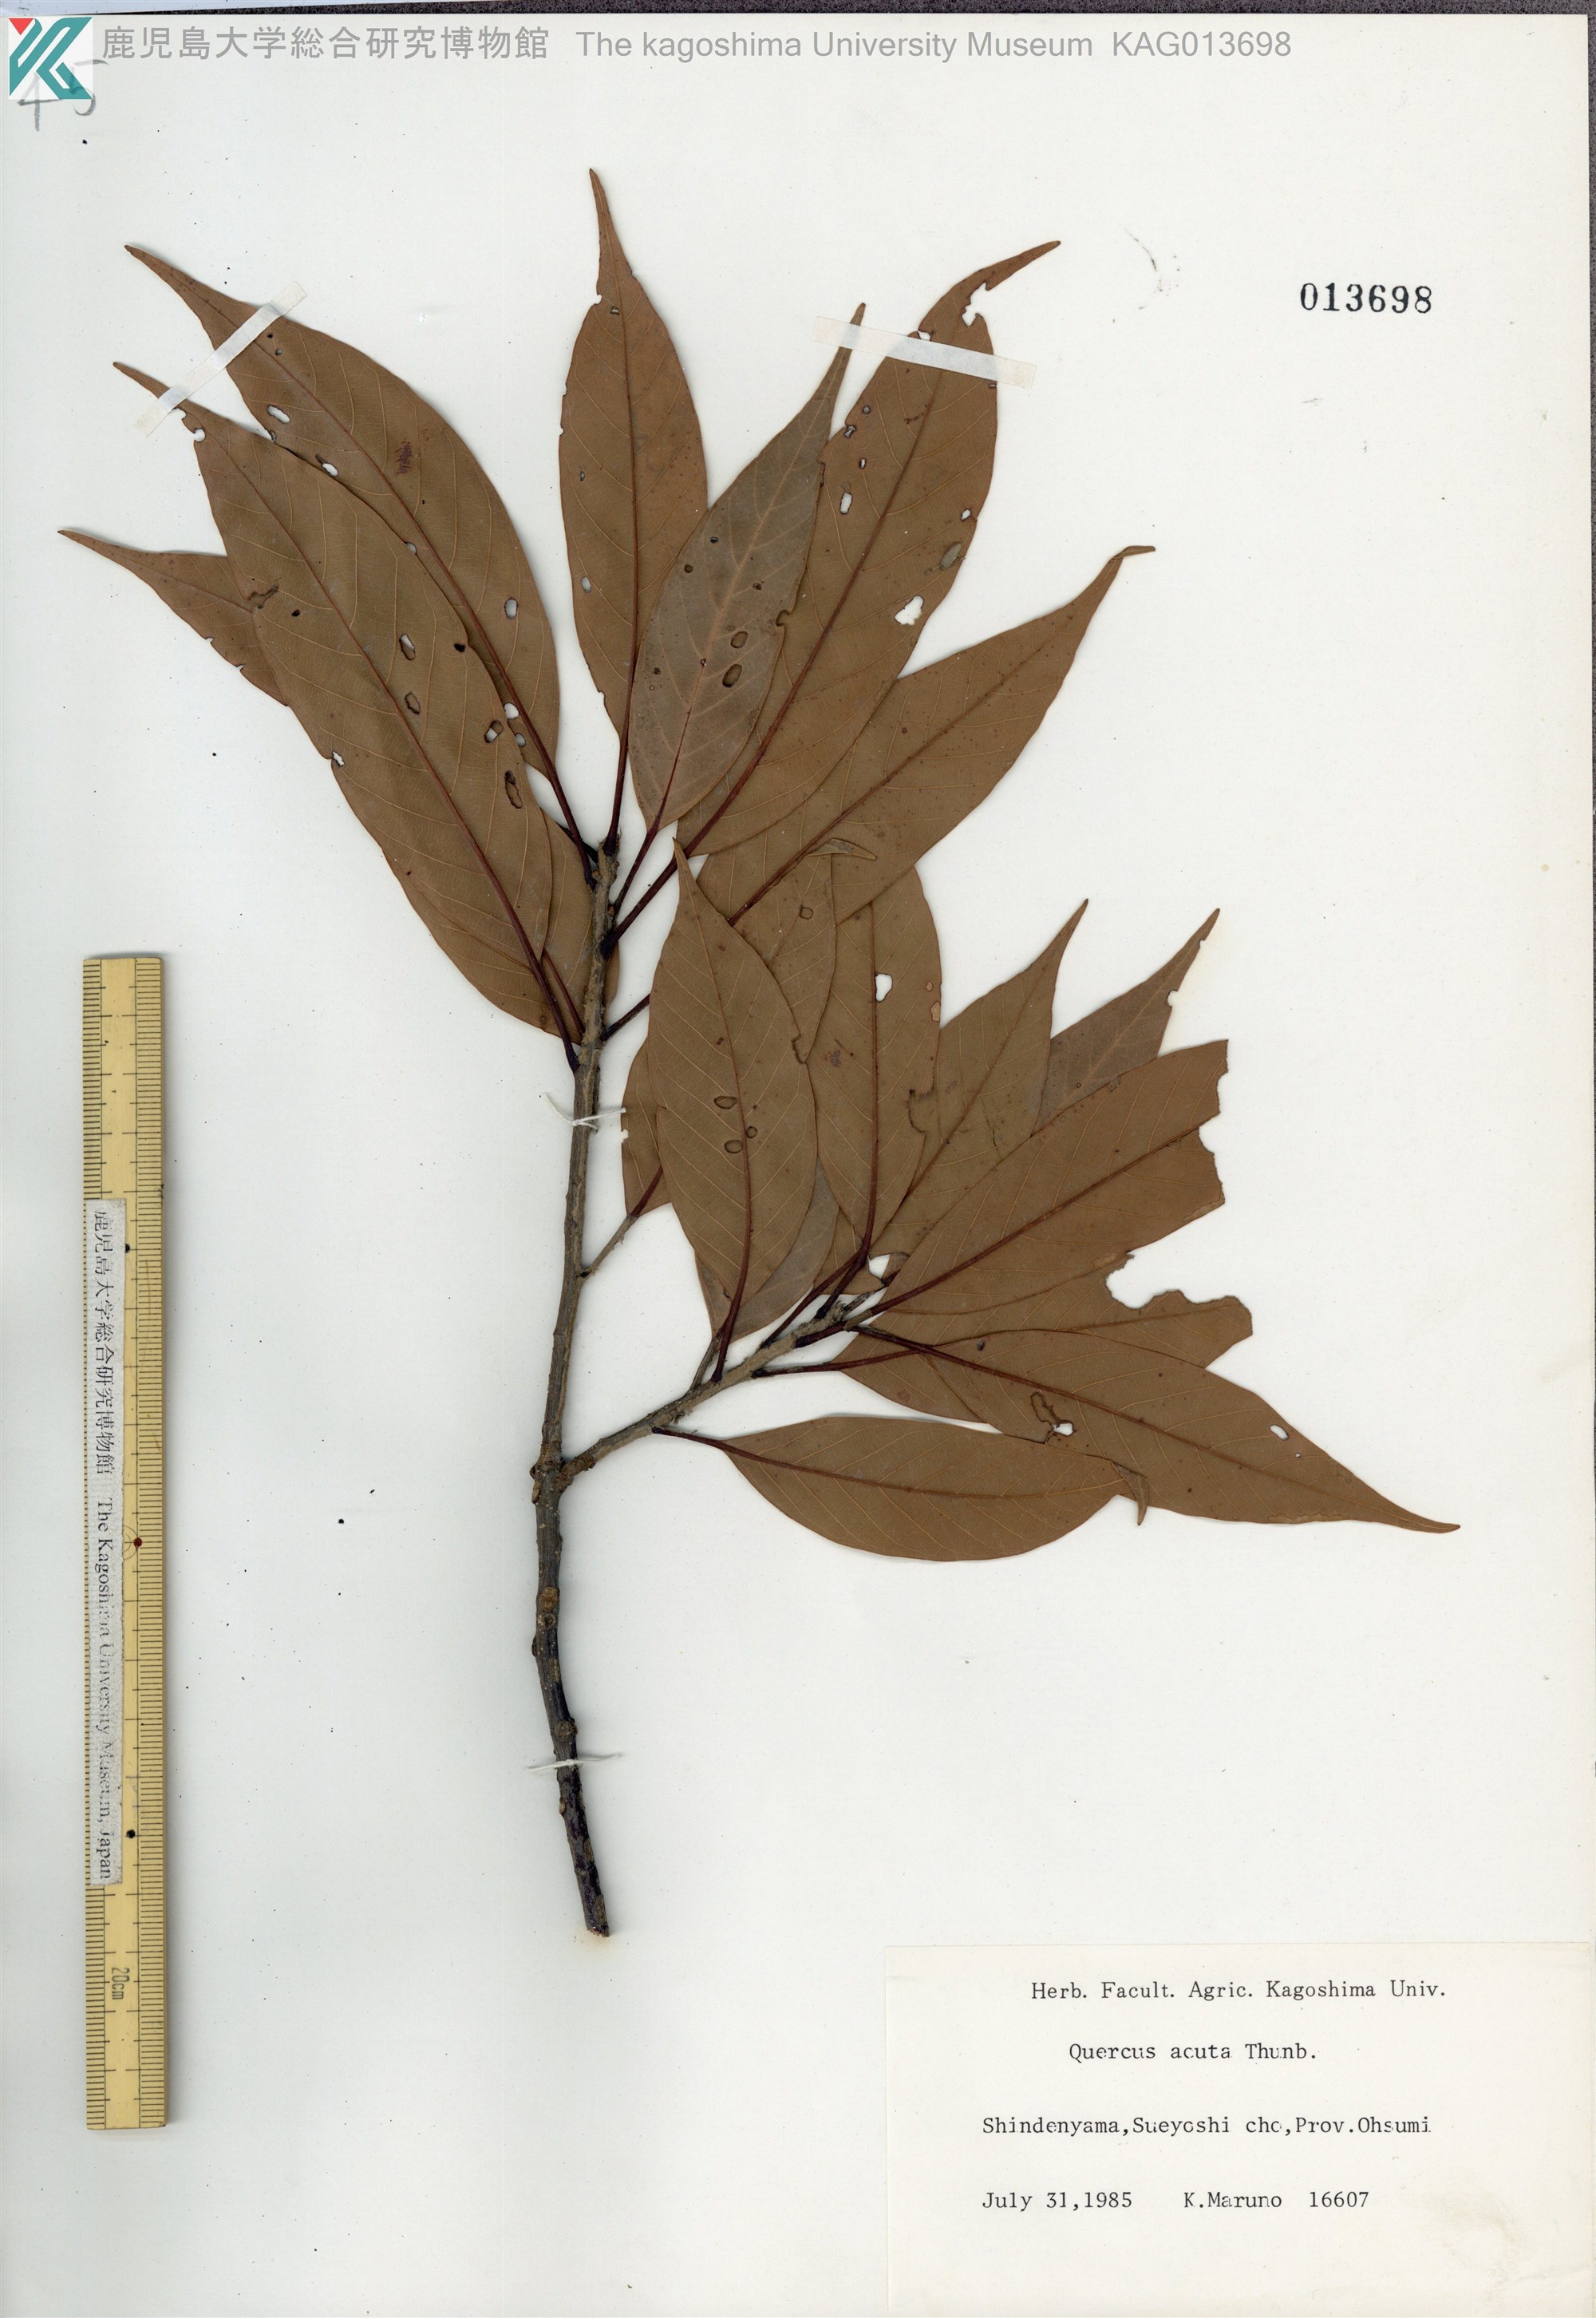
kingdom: Plantae
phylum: Tracheophyta
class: Magnoliopsida
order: Fagales
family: Fagaceae
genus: Quercus
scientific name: Quercus acuta
